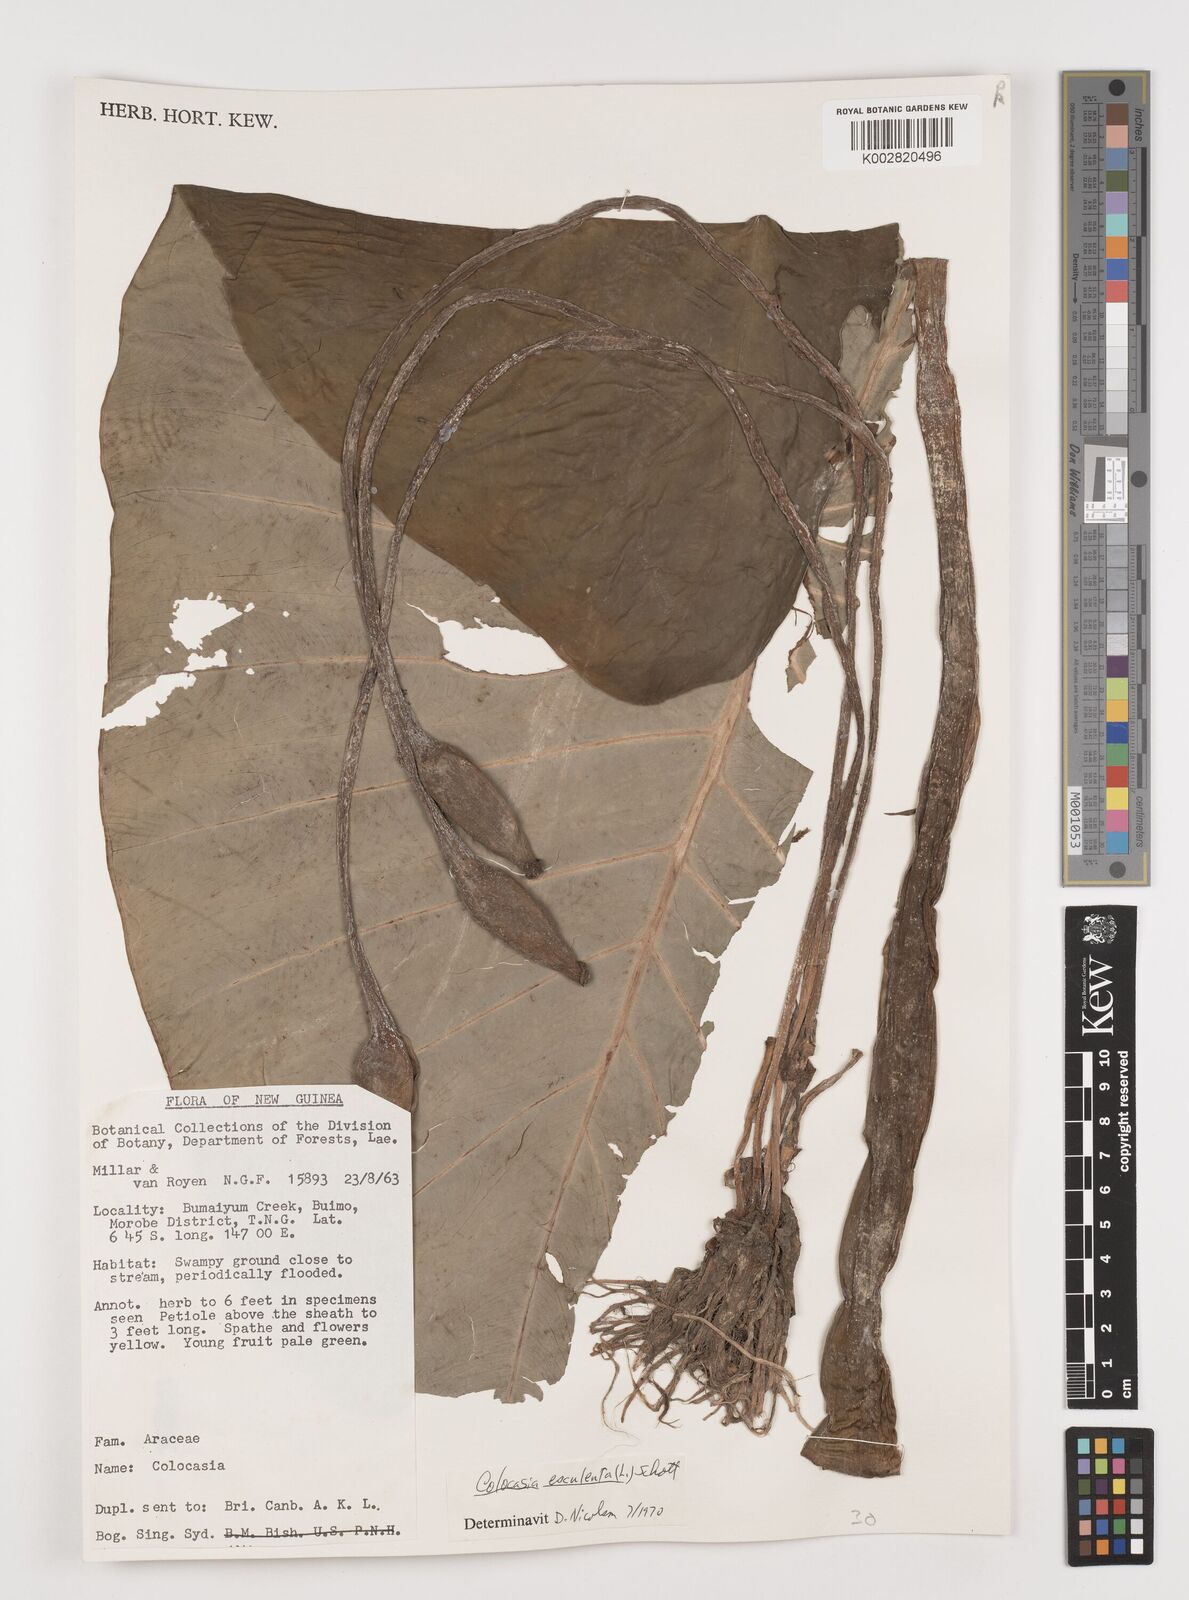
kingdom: Plantae
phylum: Tracheophyta
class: Liliopsida
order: Alismatales
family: Araceae
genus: Colocasia
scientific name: Colocasia esculenta
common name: Taro
